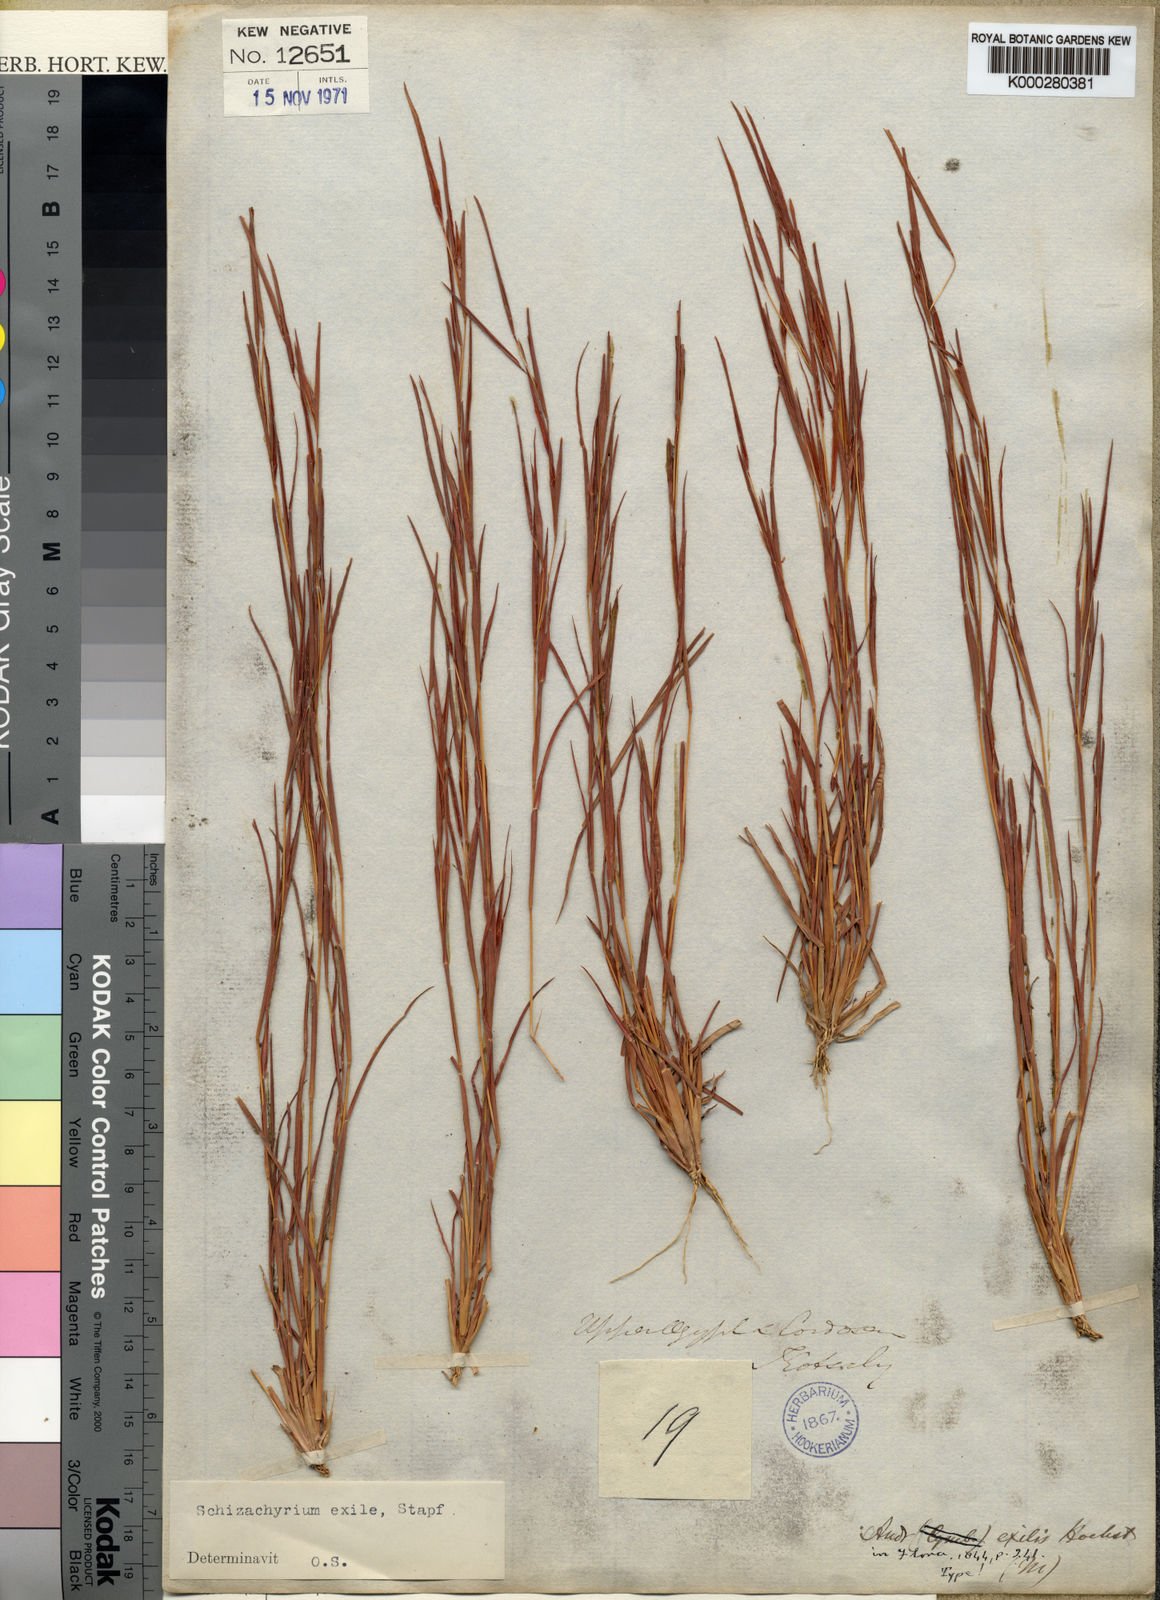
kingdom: Plantae
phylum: Tracheophyta
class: Liliopsida
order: Poales
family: Poaceae
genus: Schizachyrium
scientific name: Schizachyrium exile
